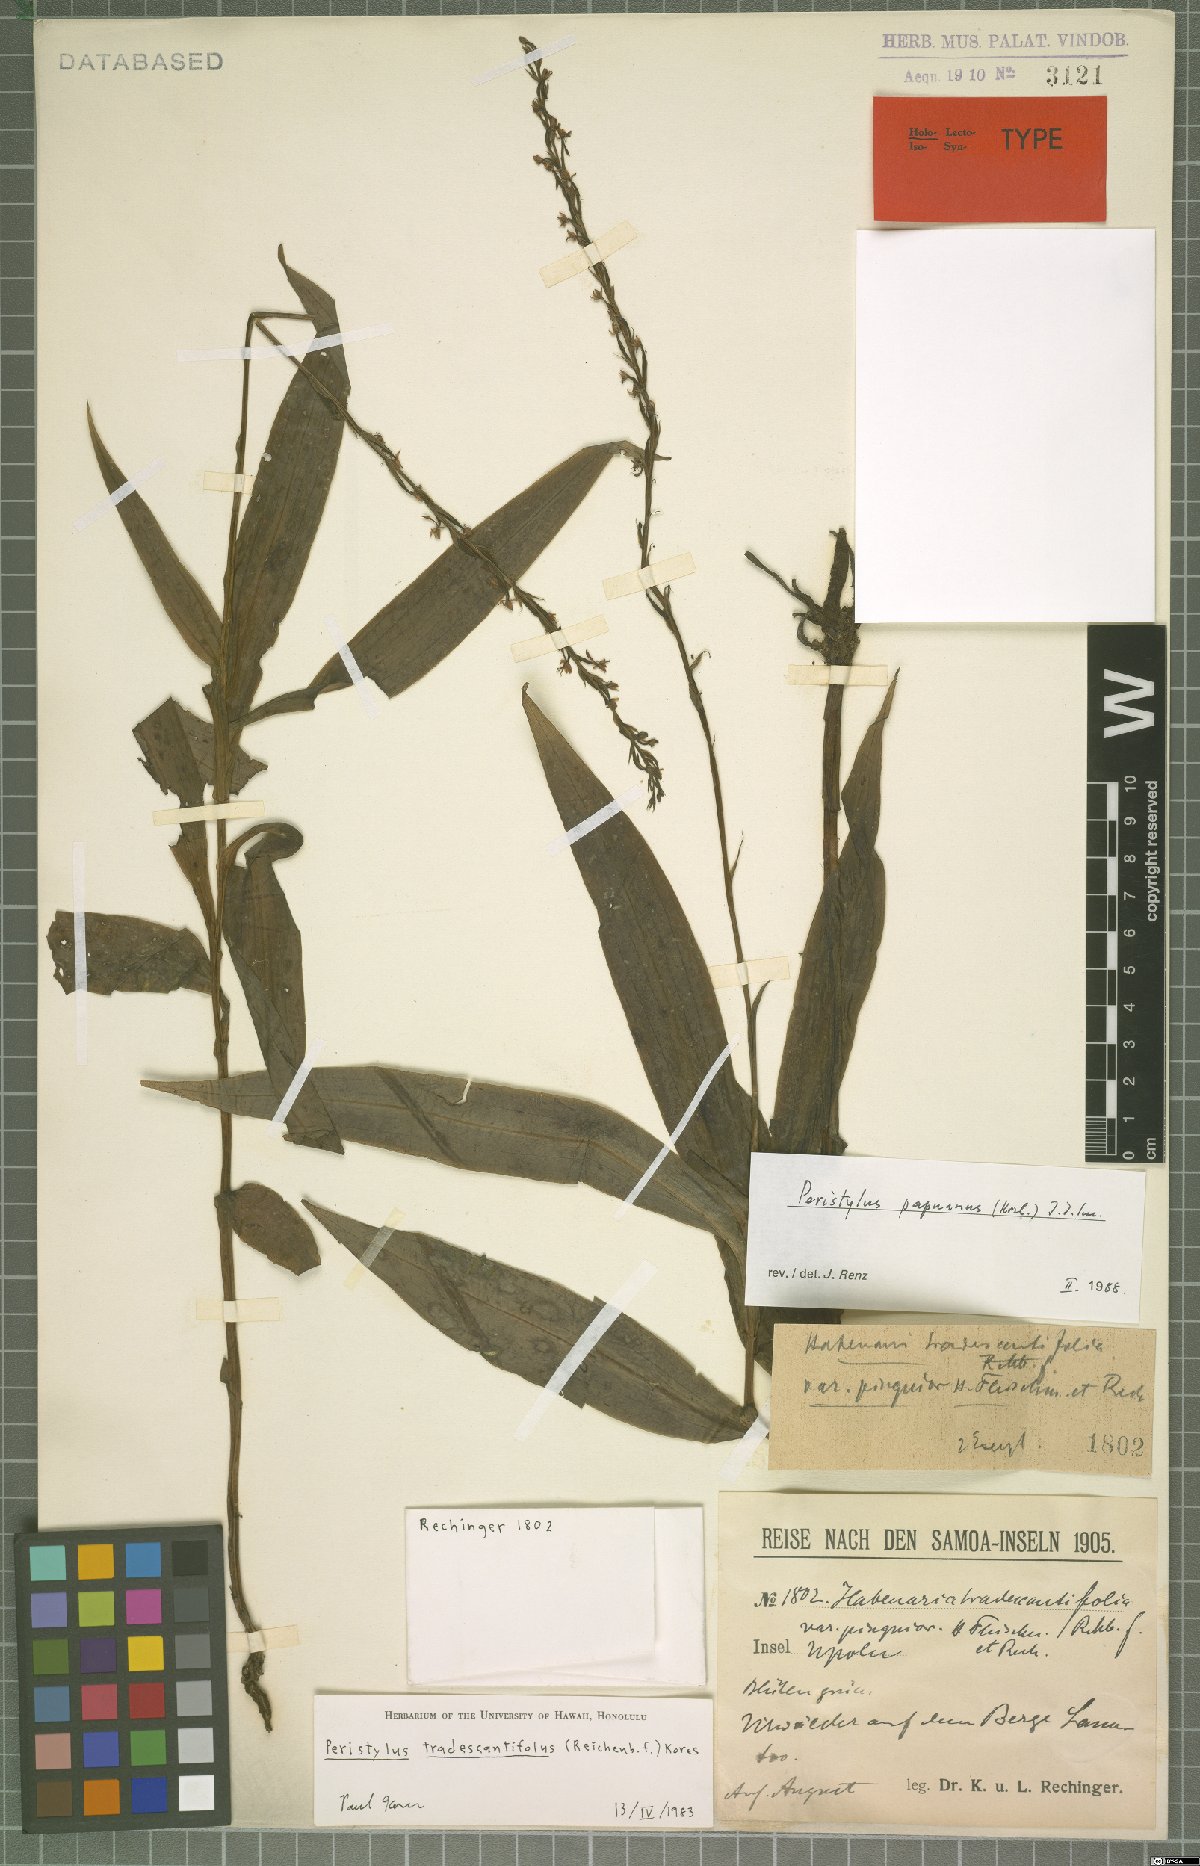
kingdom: Plantae
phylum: Tracheophyta
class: Liliopsida
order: Asparagales
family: Orchidaceae
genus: Peristylus
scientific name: Peristylus tradescantiifolius
